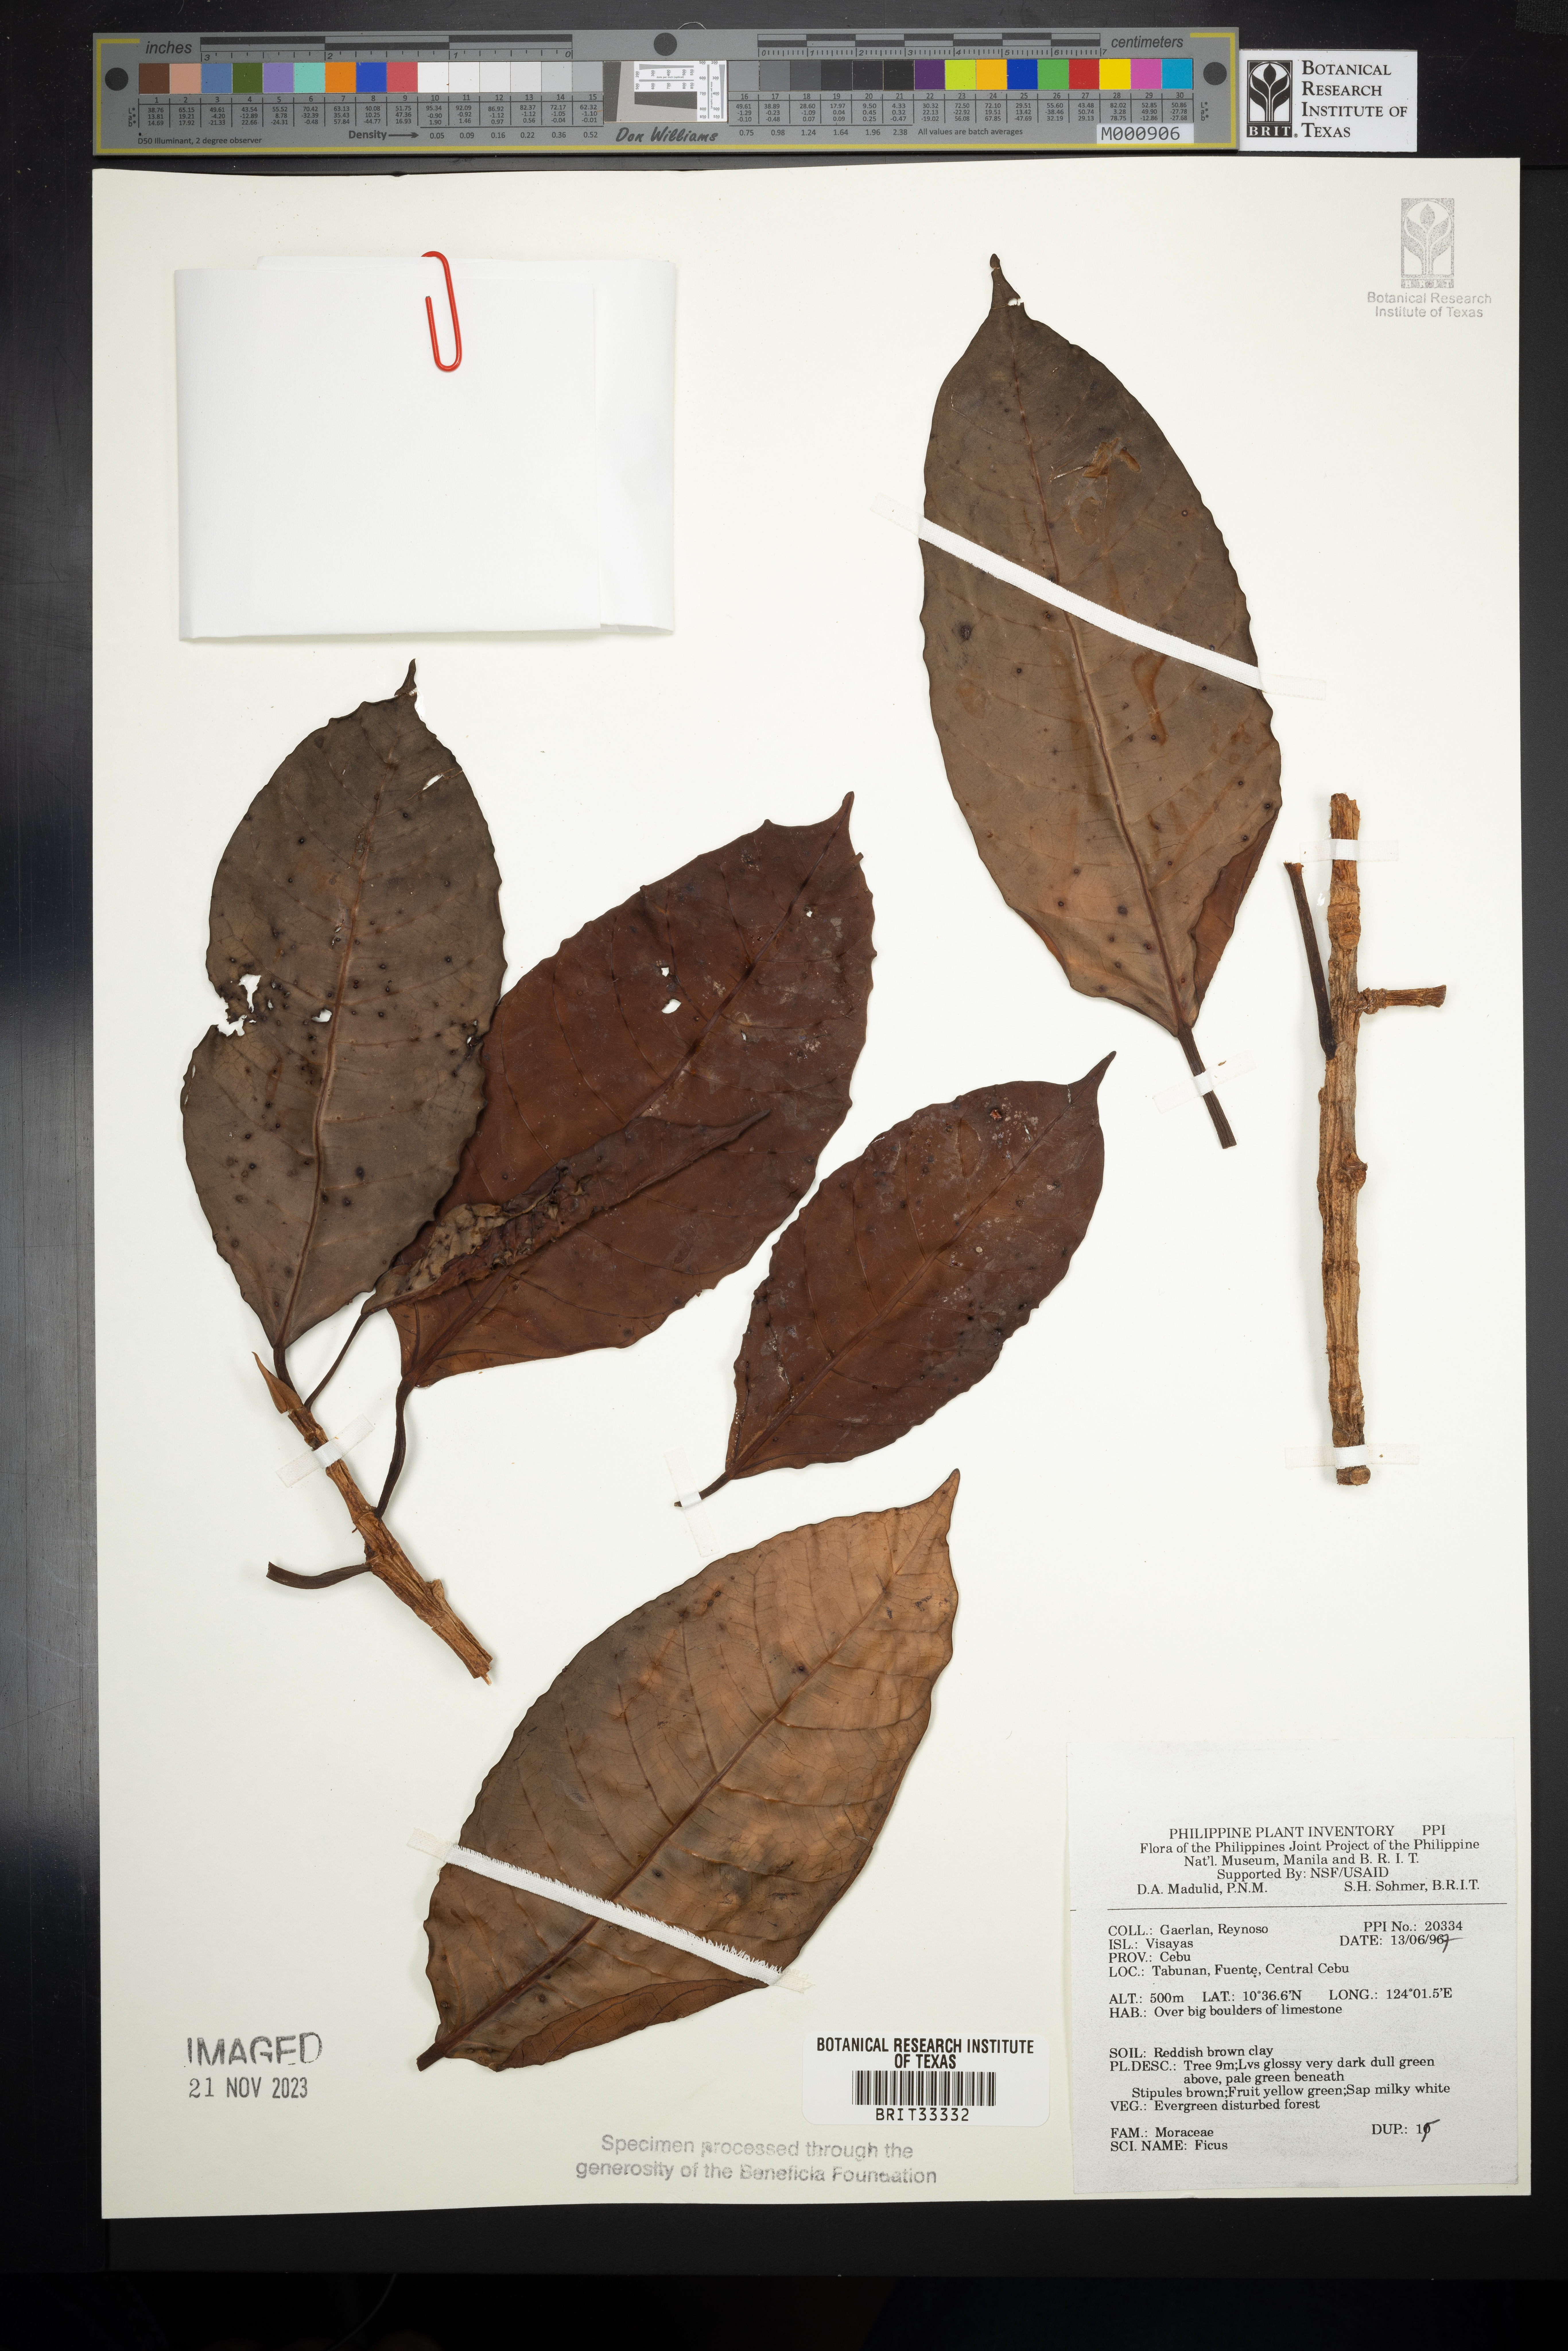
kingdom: Plantae
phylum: Tracheophyta
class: Magnoliopsida
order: Rosales
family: Moraceae
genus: Ficus
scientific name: Ficus
